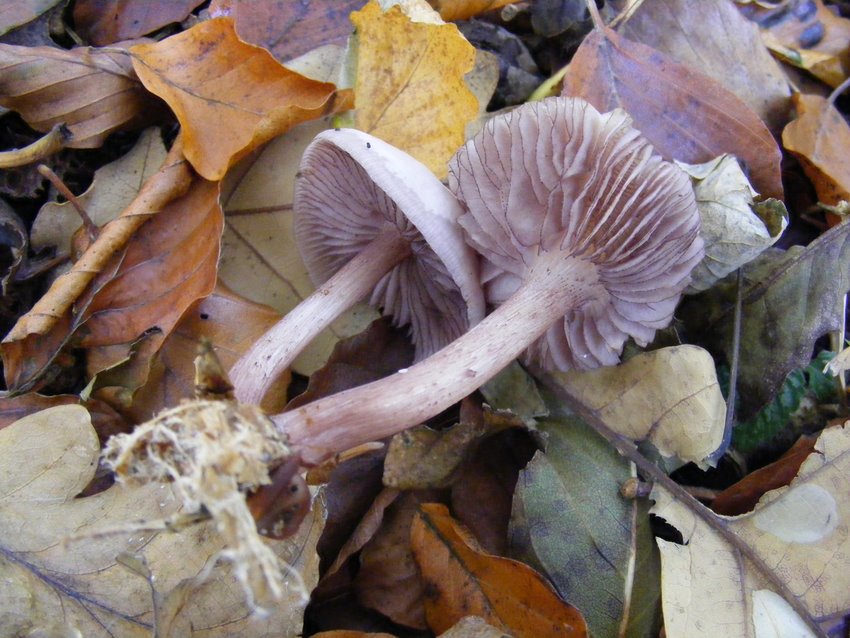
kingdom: Fungi
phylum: Basidiomycota
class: Agaricomycetes
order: Agaricales
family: Mycenaceae
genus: Mycena
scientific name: Mycena pelianthina
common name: mørkbladet huesvamp
